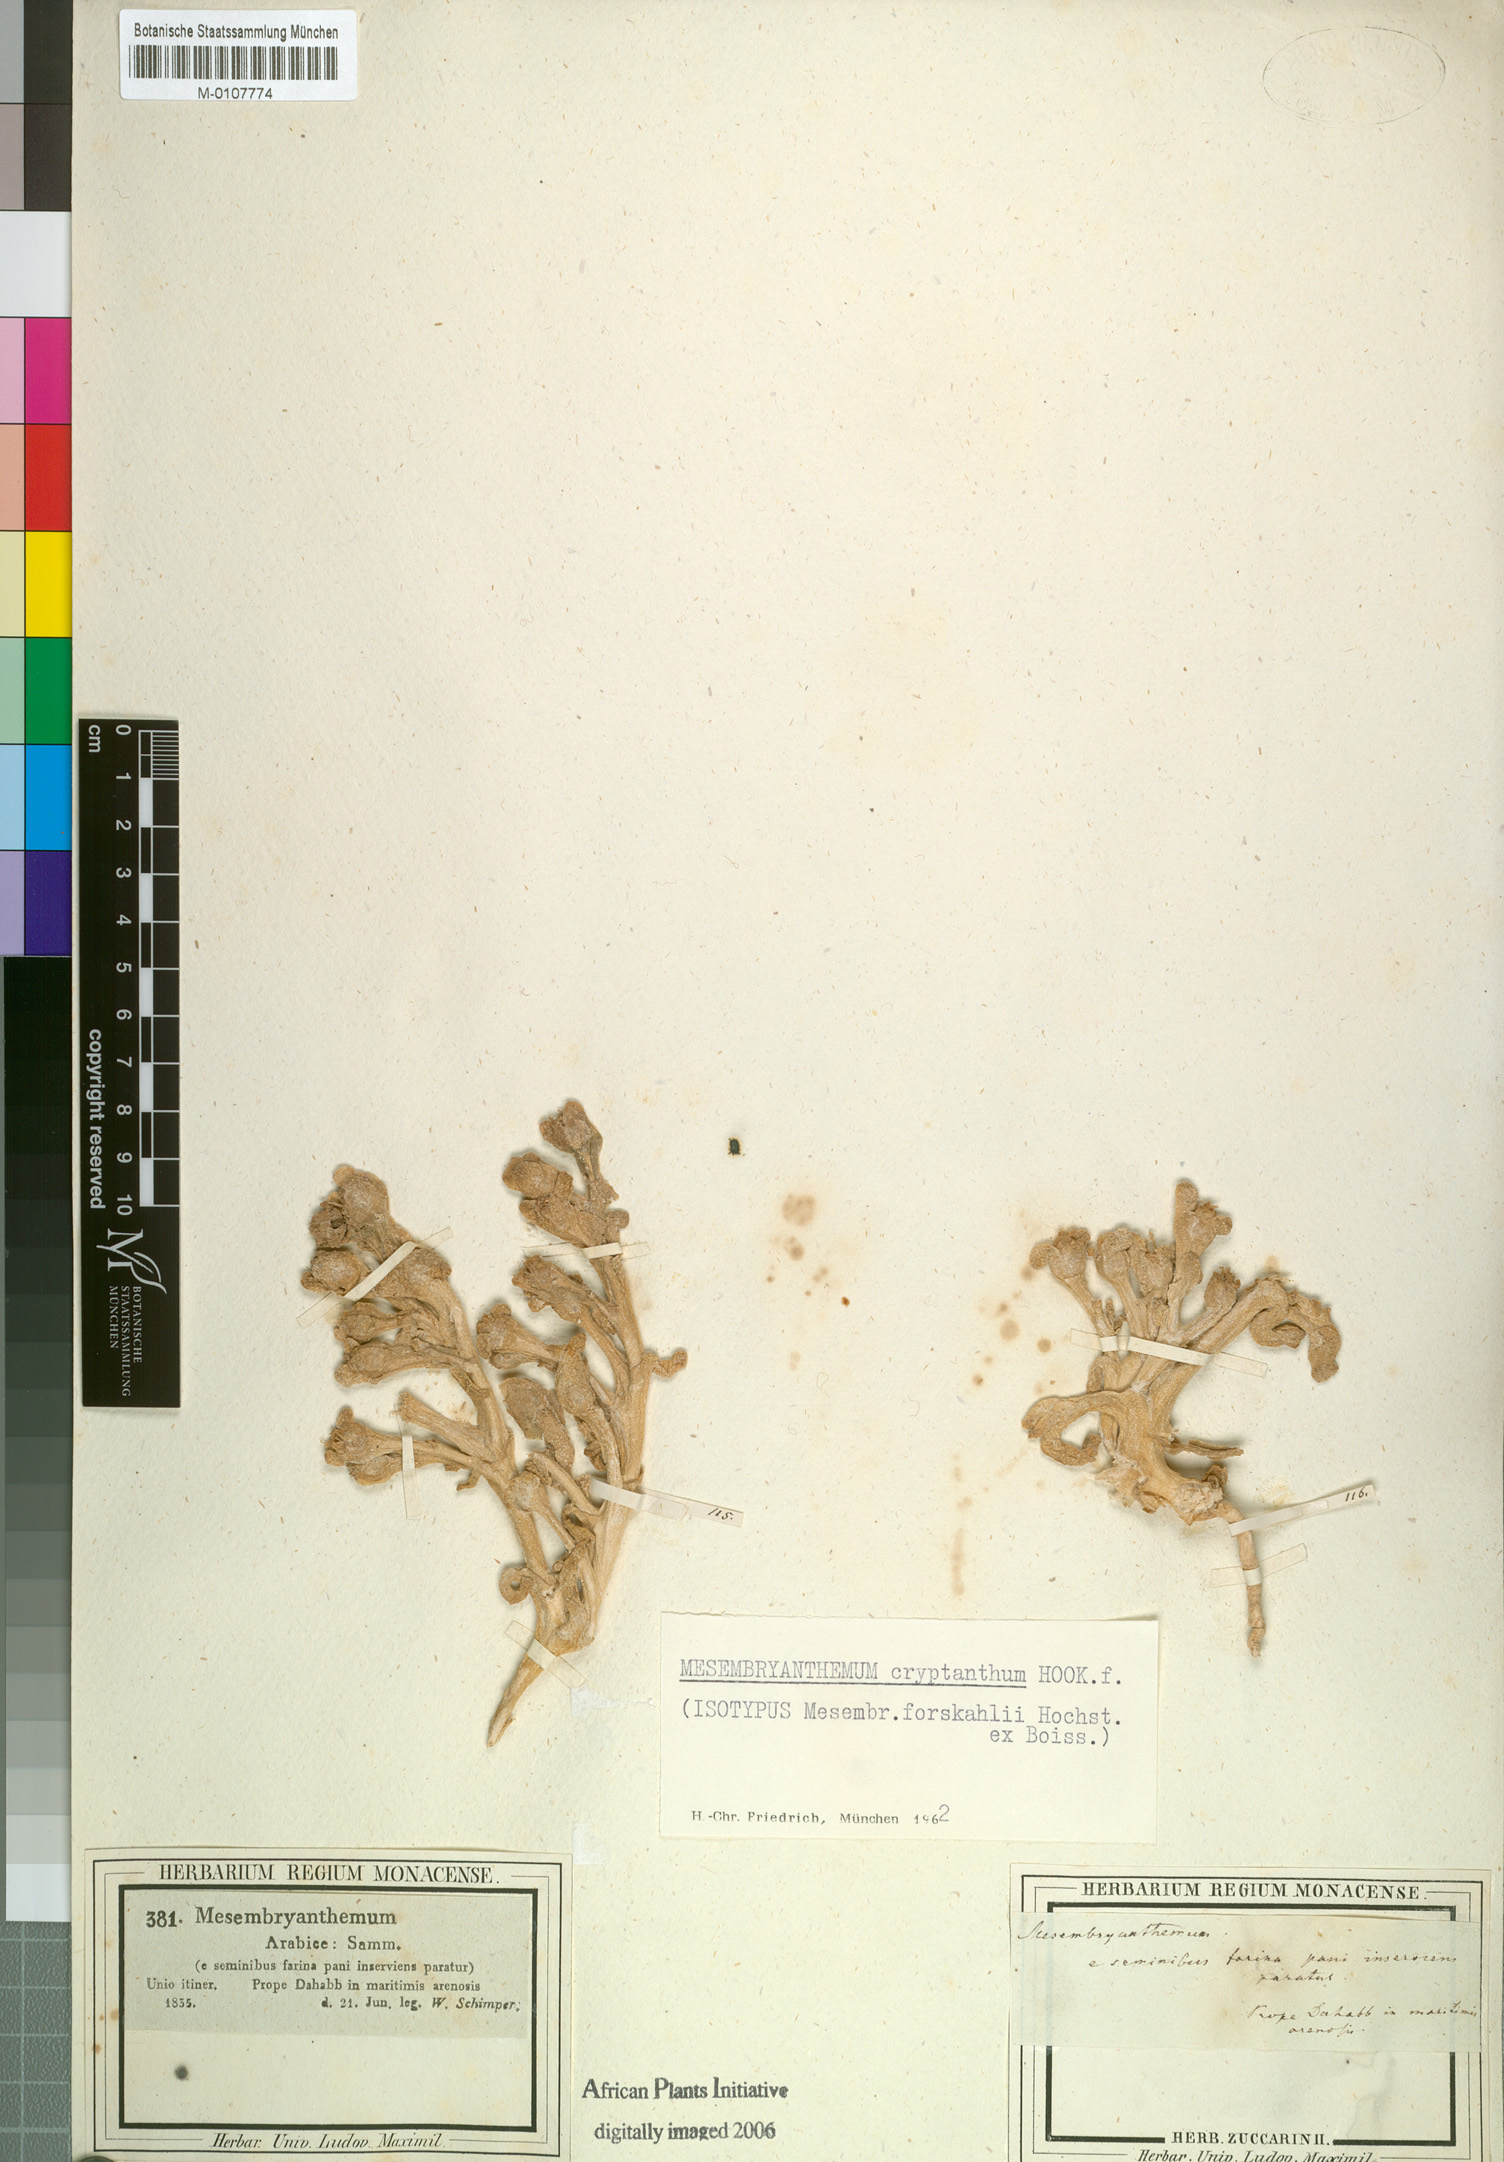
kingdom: Plantae
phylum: Tracheophyta
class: Magnoliopsida
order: Caryophyllales
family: Aizoaceae
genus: Mesembryanthemum
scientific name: Mesembryanthemum cryptanthum
